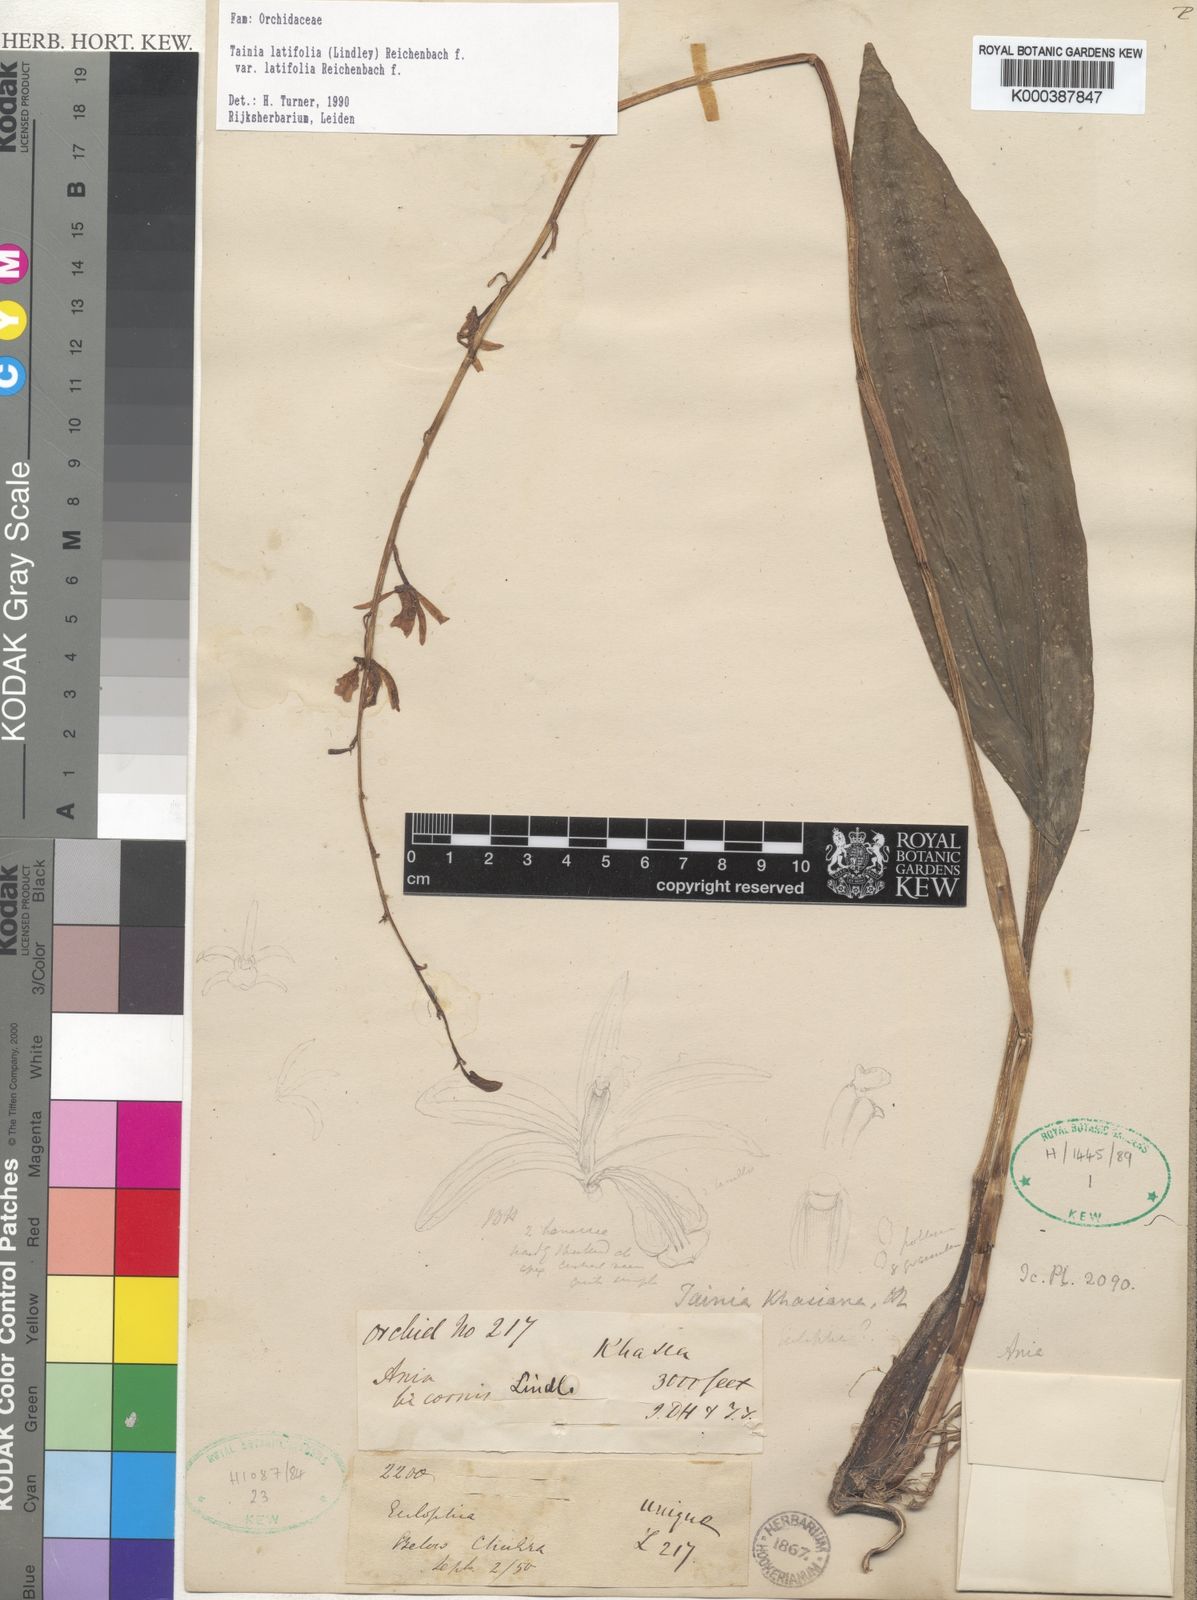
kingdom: Plantae
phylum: Tracheophyta
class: Liliopsida
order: Asparagales
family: Orchidaceae
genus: Tainia
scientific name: Tainia latifolia
